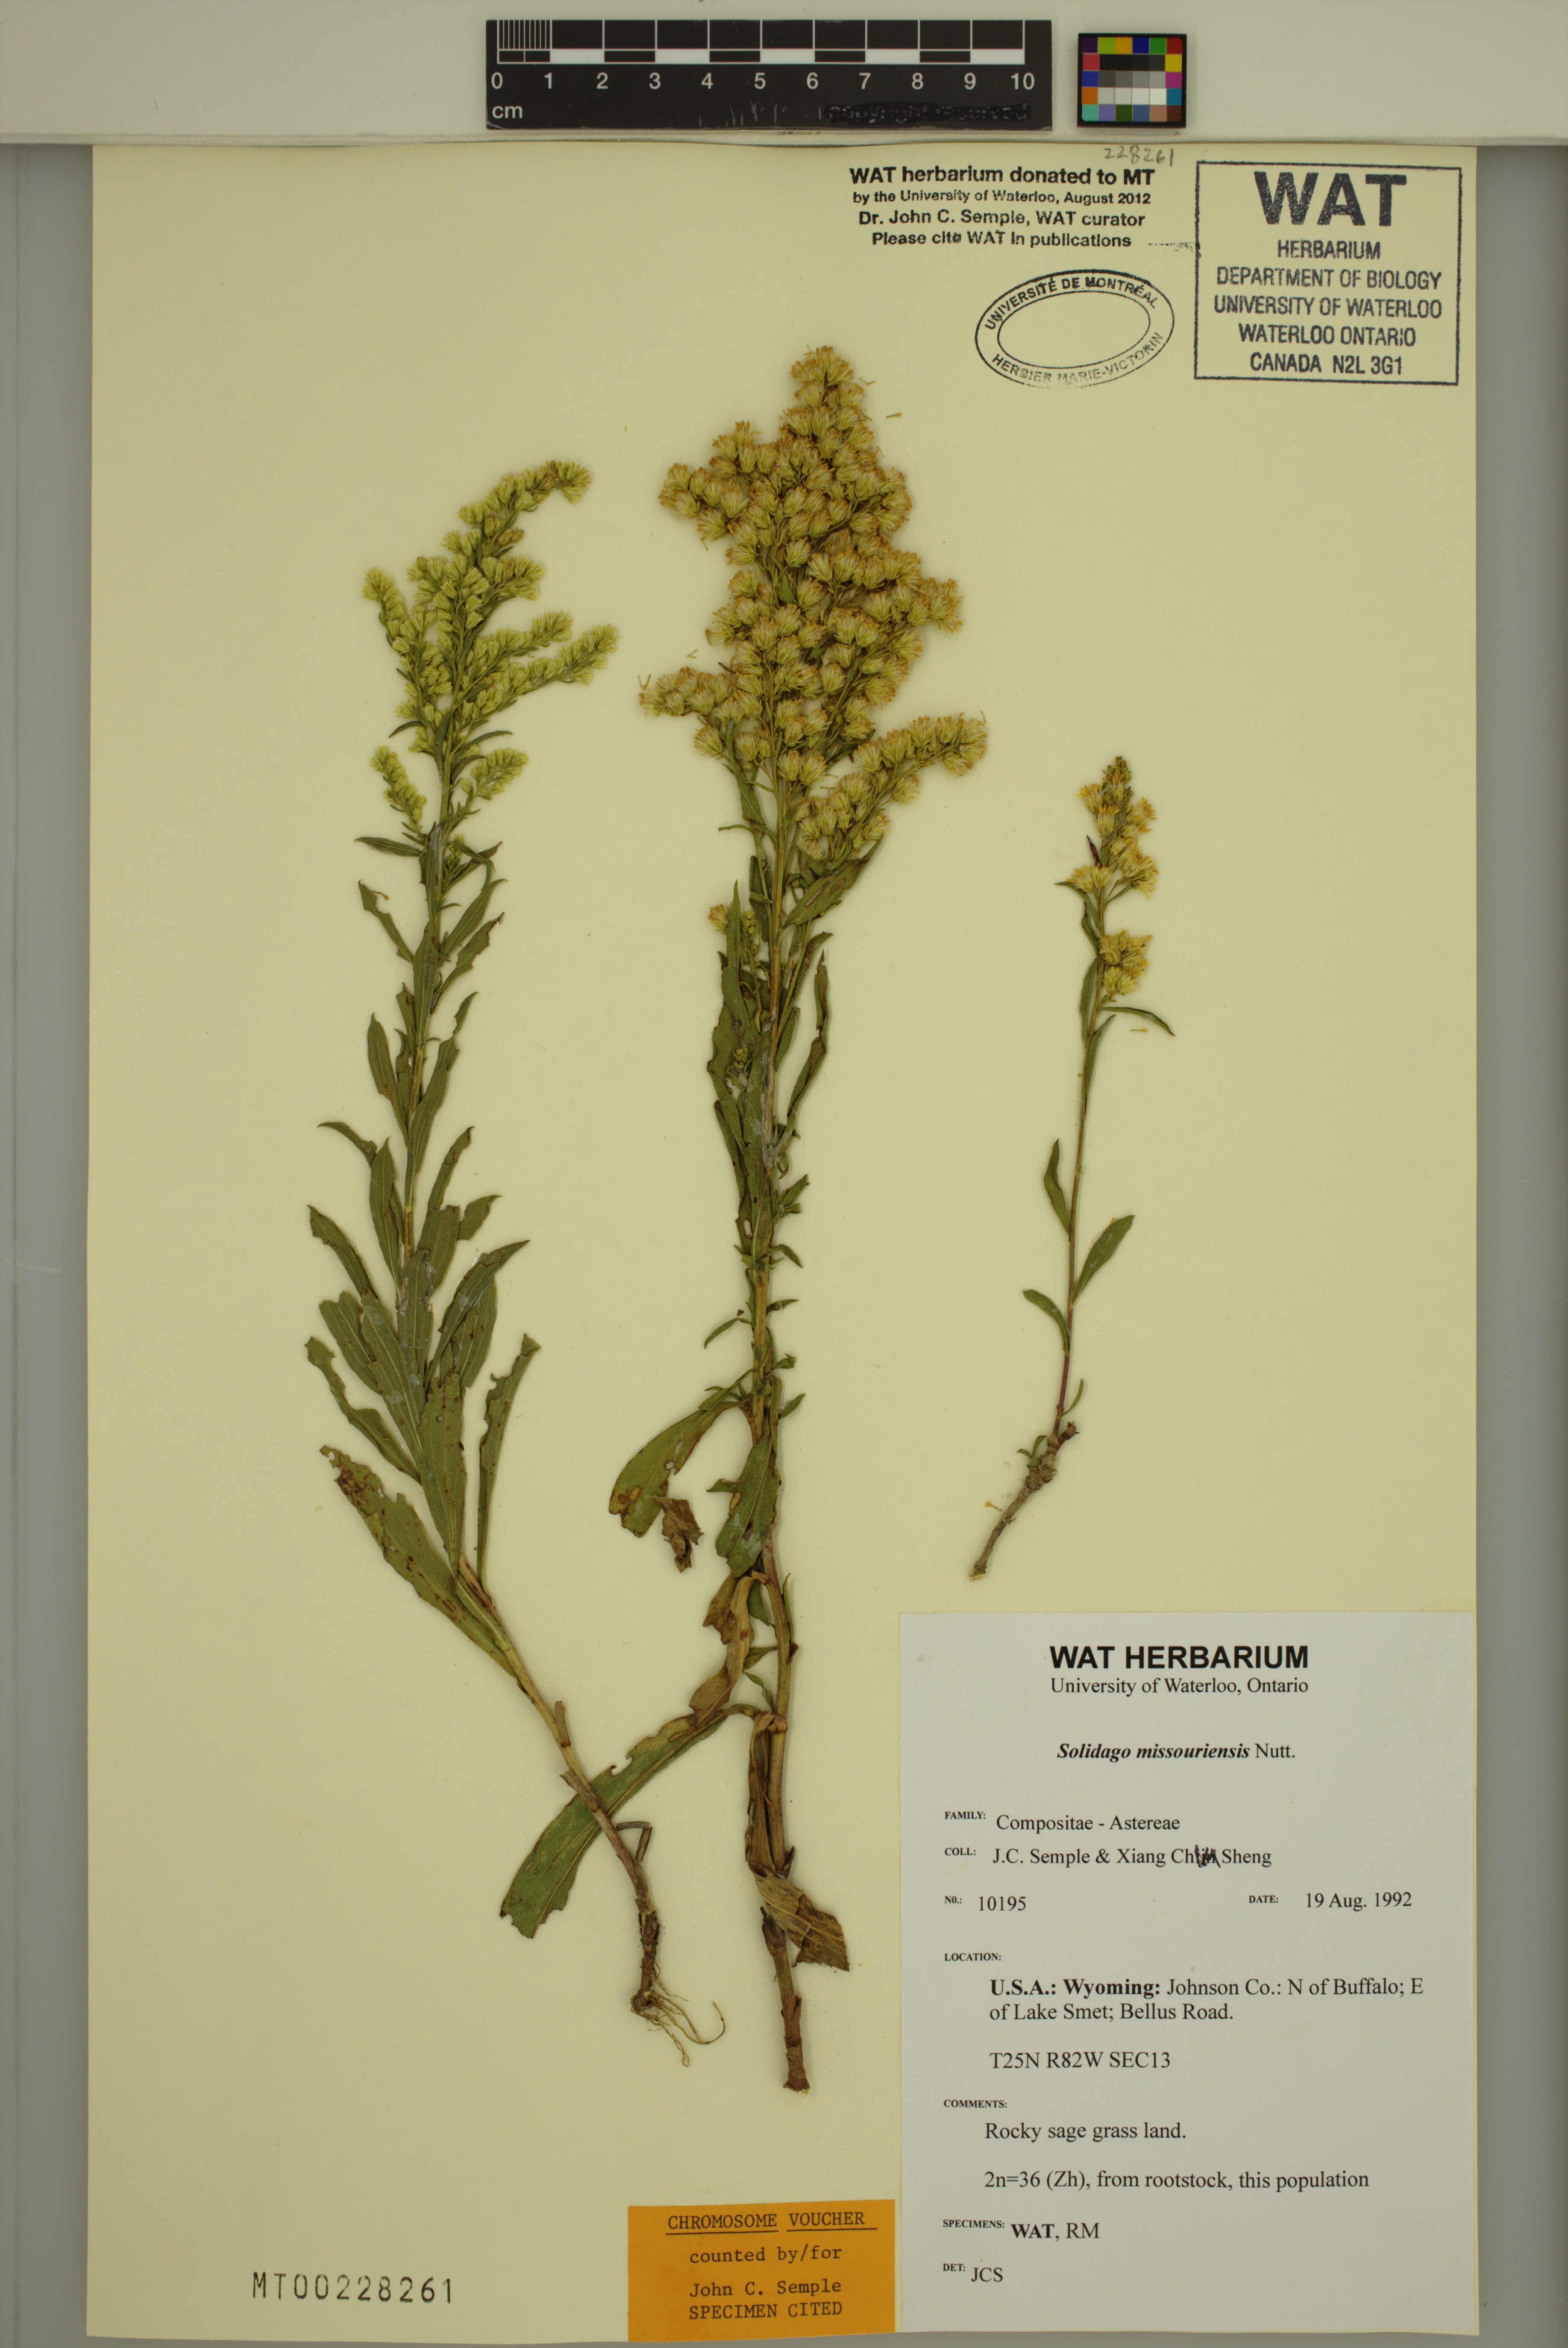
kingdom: Plantae
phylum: Tracheophyta
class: Magnoliopsida
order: Asterales
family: Asteraceae
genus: Solidago
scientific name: Solidago missouriensis
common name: Prairie goldenrod
